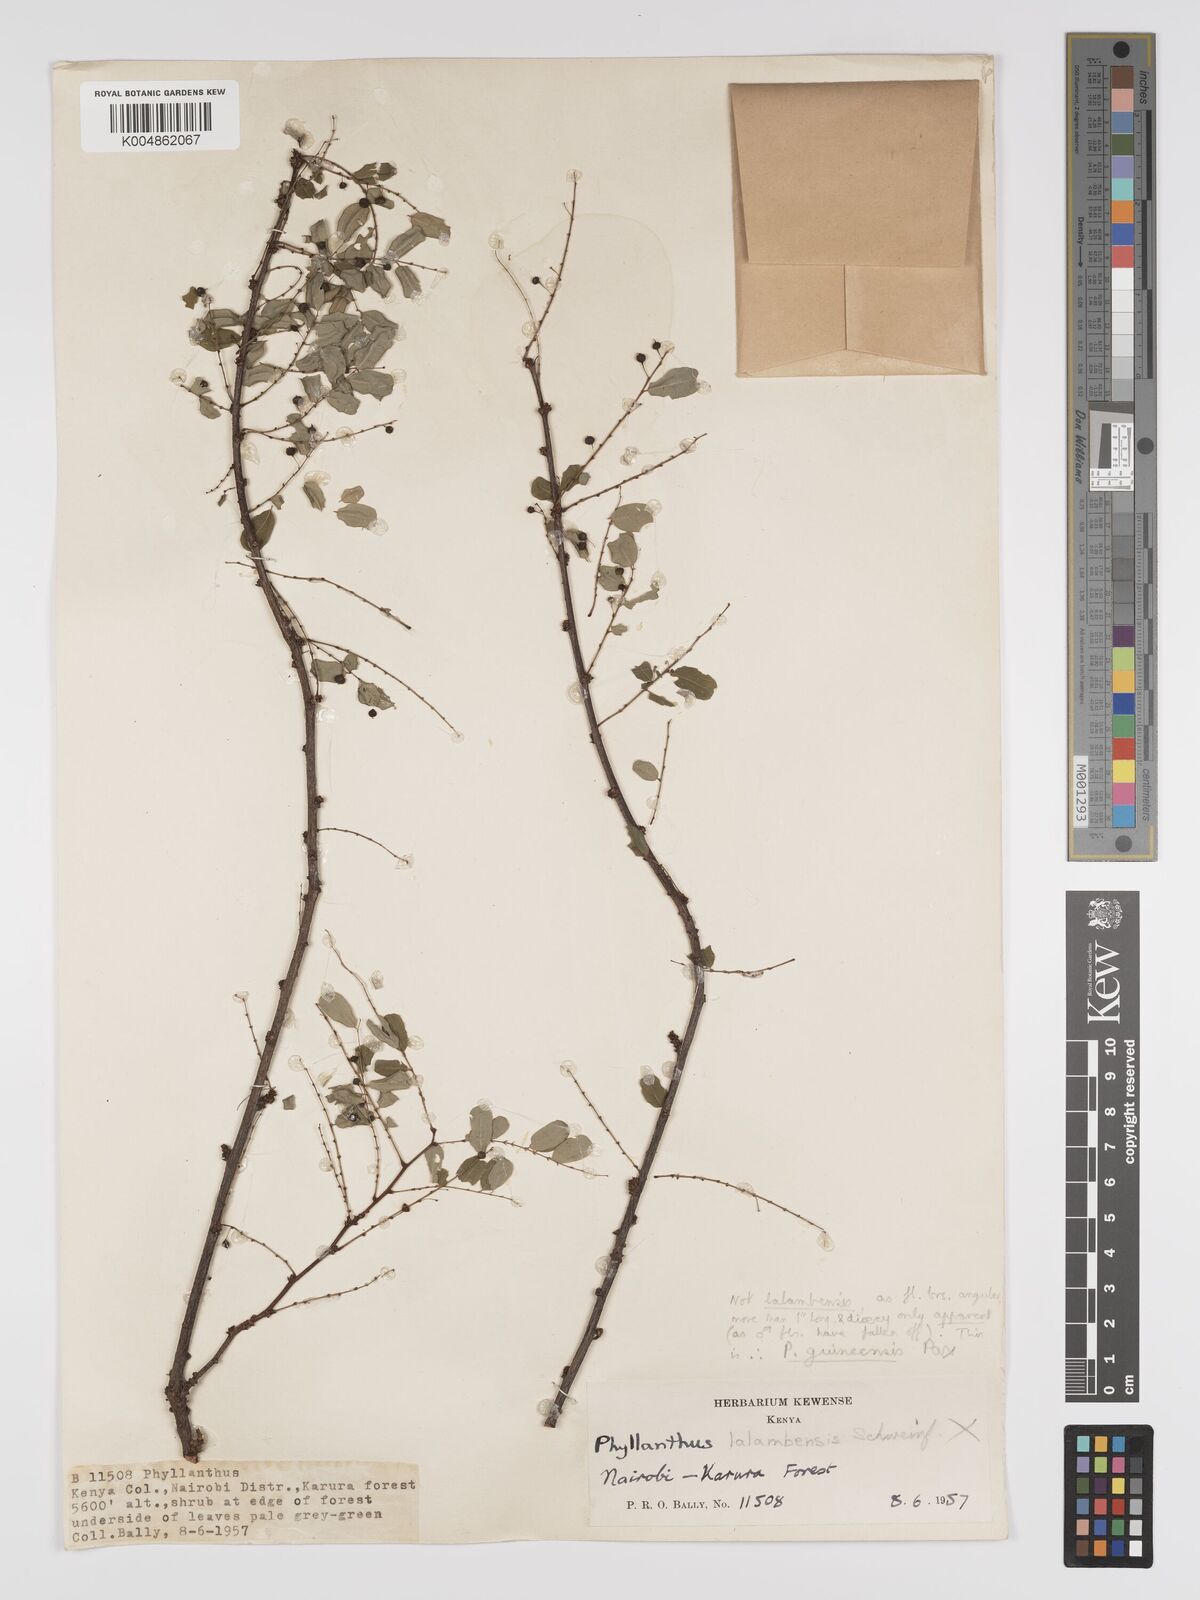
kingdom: Plantae
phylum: Tracheophyta
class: Magnoliopsida
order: Malpighiales
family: Phyllanthaceae
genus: Phyllanthus
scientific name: Phyllanthus ovalifolius
